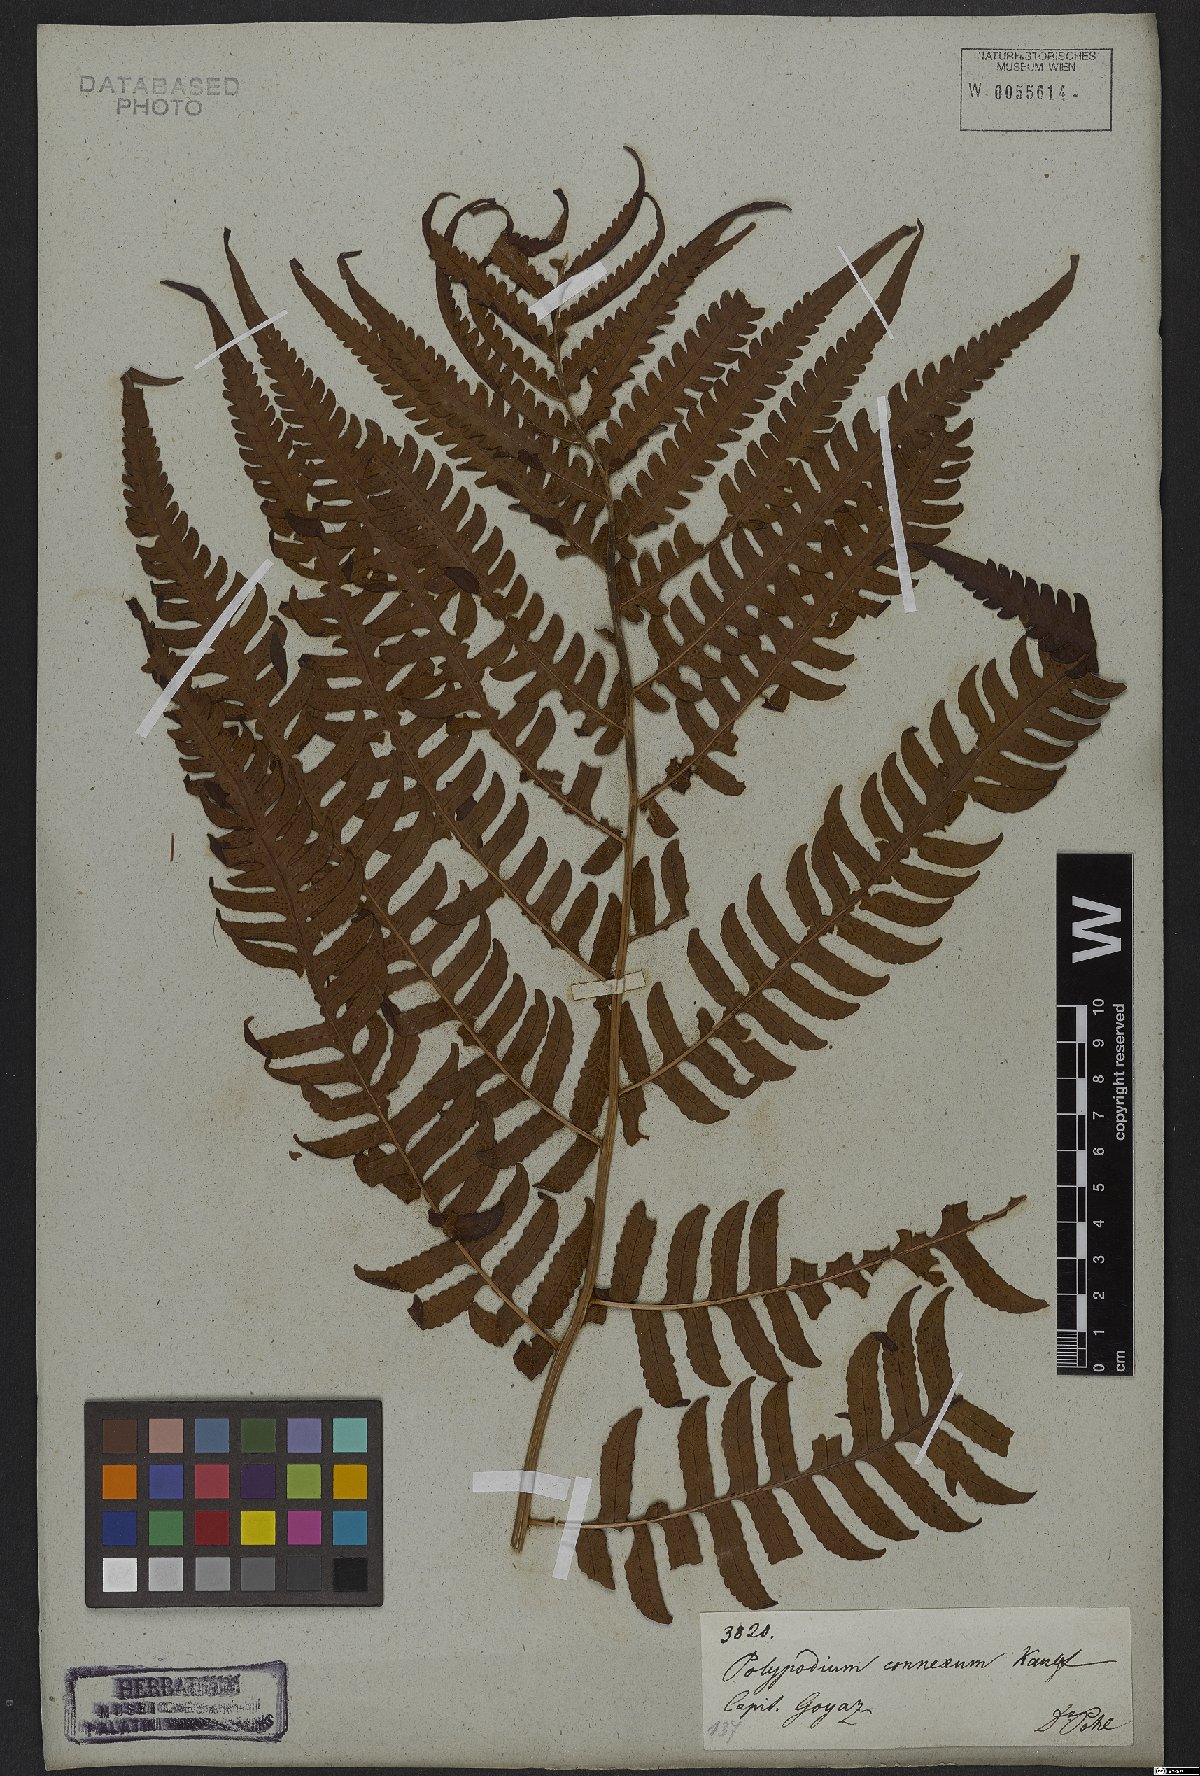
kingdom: Plantae
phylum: Tracheophyta
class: Polypodiopsida
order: Polypodiales
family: Dryopteridaceae
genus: Megalastrum
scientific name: Megalastrum connexum
